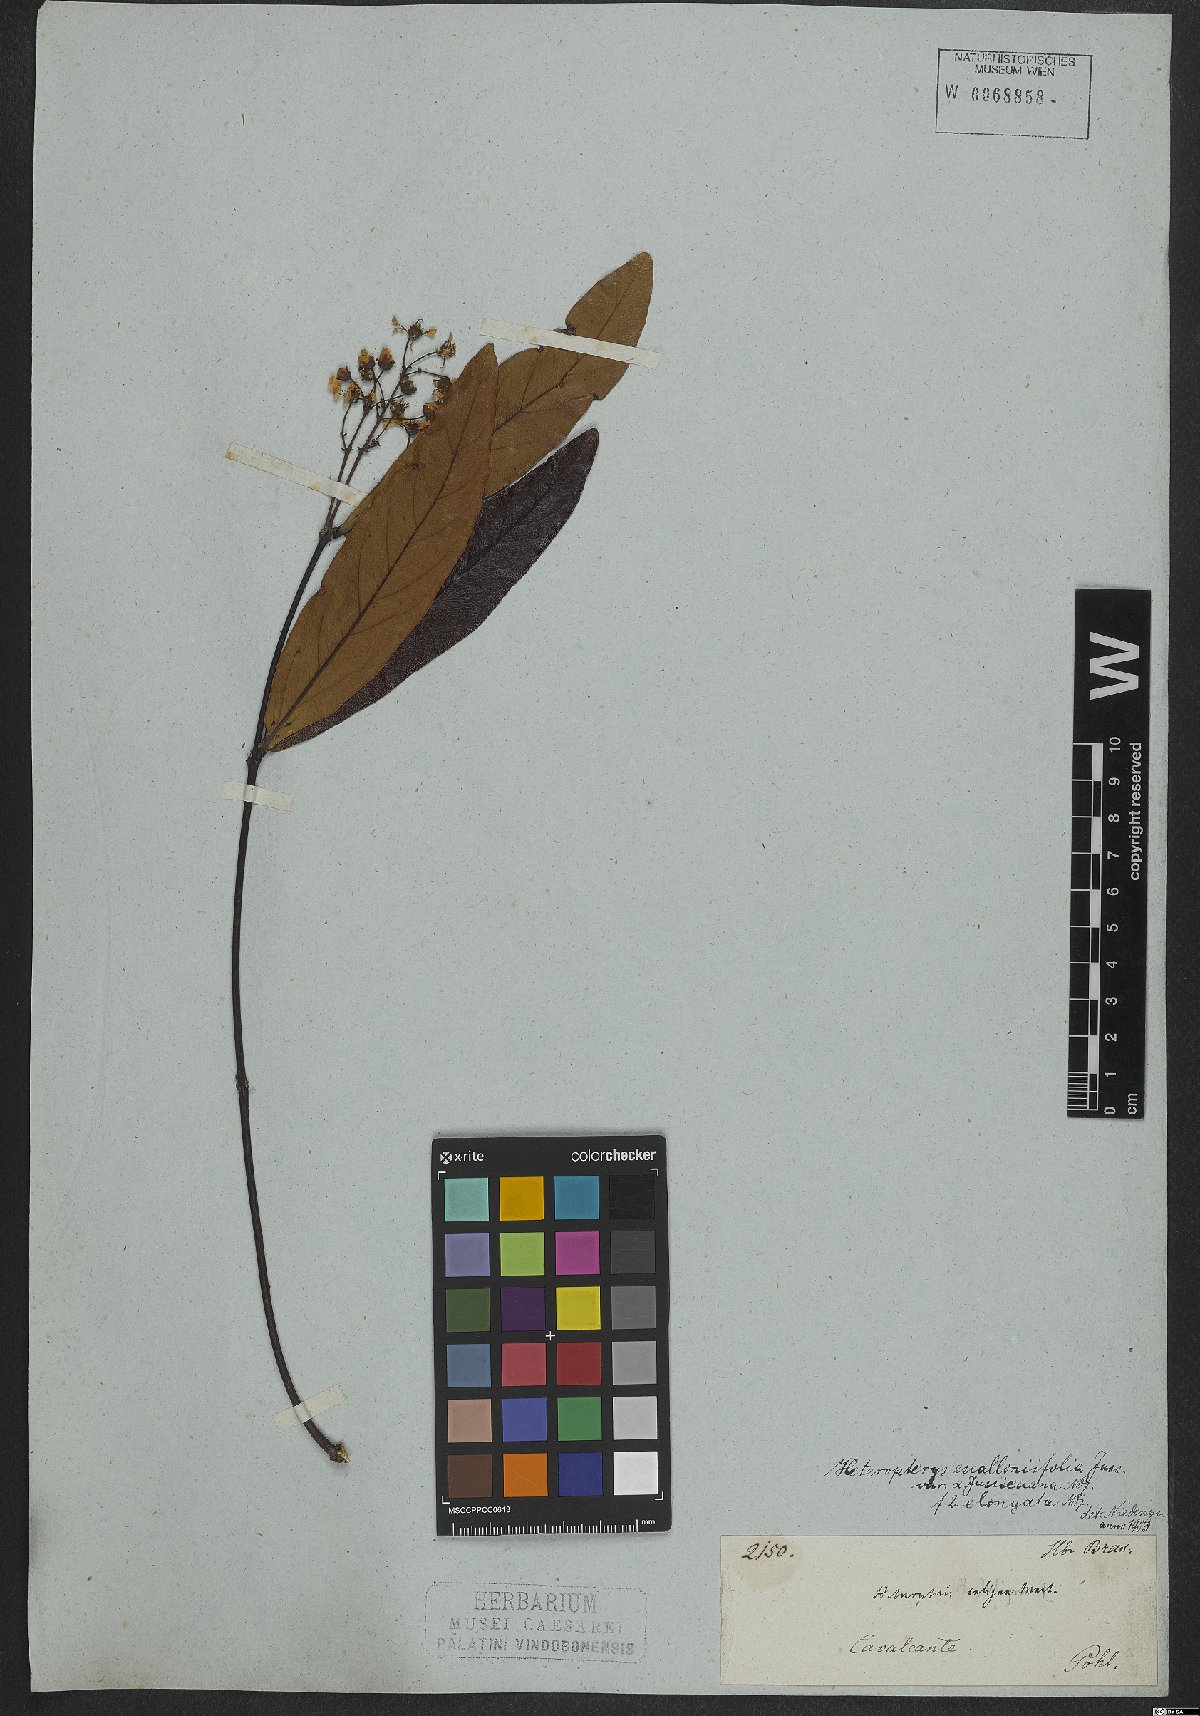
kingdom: Plantae
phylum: Tracheophyta
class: Magnoliopsida
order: Malpighiales
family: Malpighiaceae
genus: Heteropterys
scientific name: Heteropterys escalloniifolia
